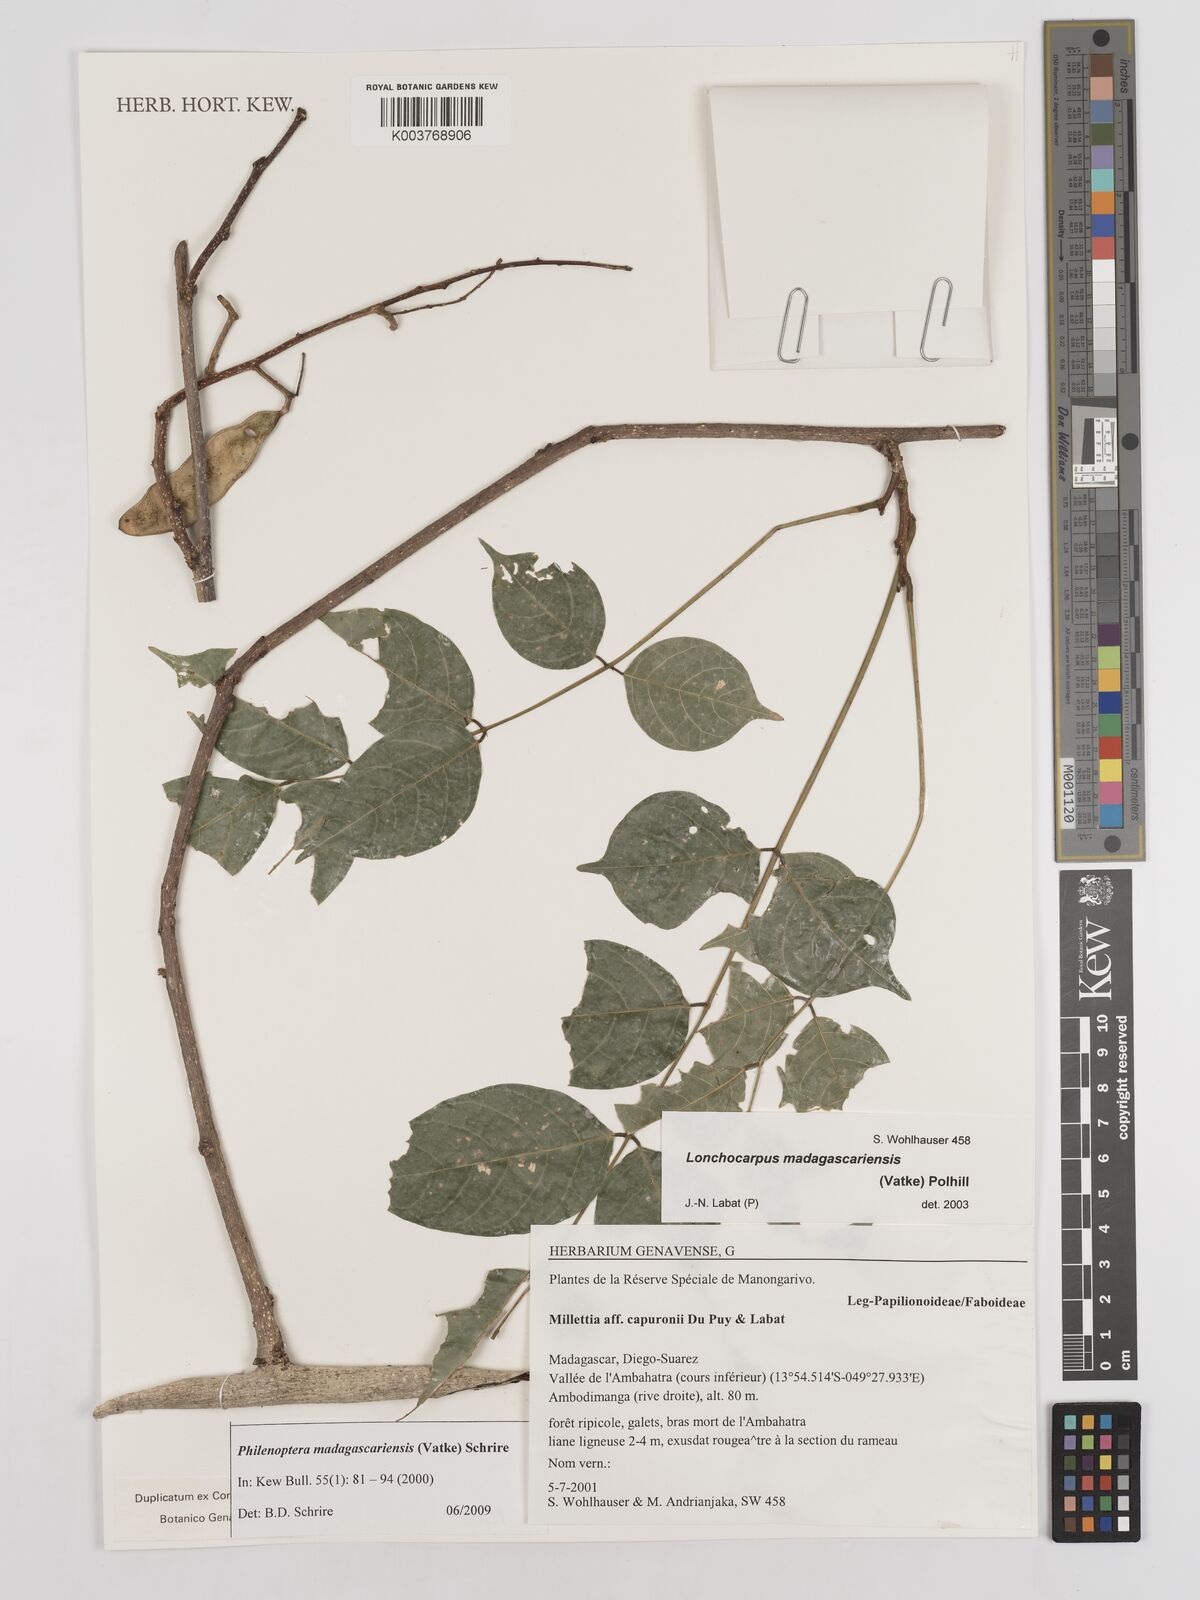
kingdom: Plantae
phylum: Tracheophyta
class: Magnoliopsida
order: Fabales
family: Fabaceae
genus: Lonchocarpus
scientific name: Lonchocarpus madagascariensis
